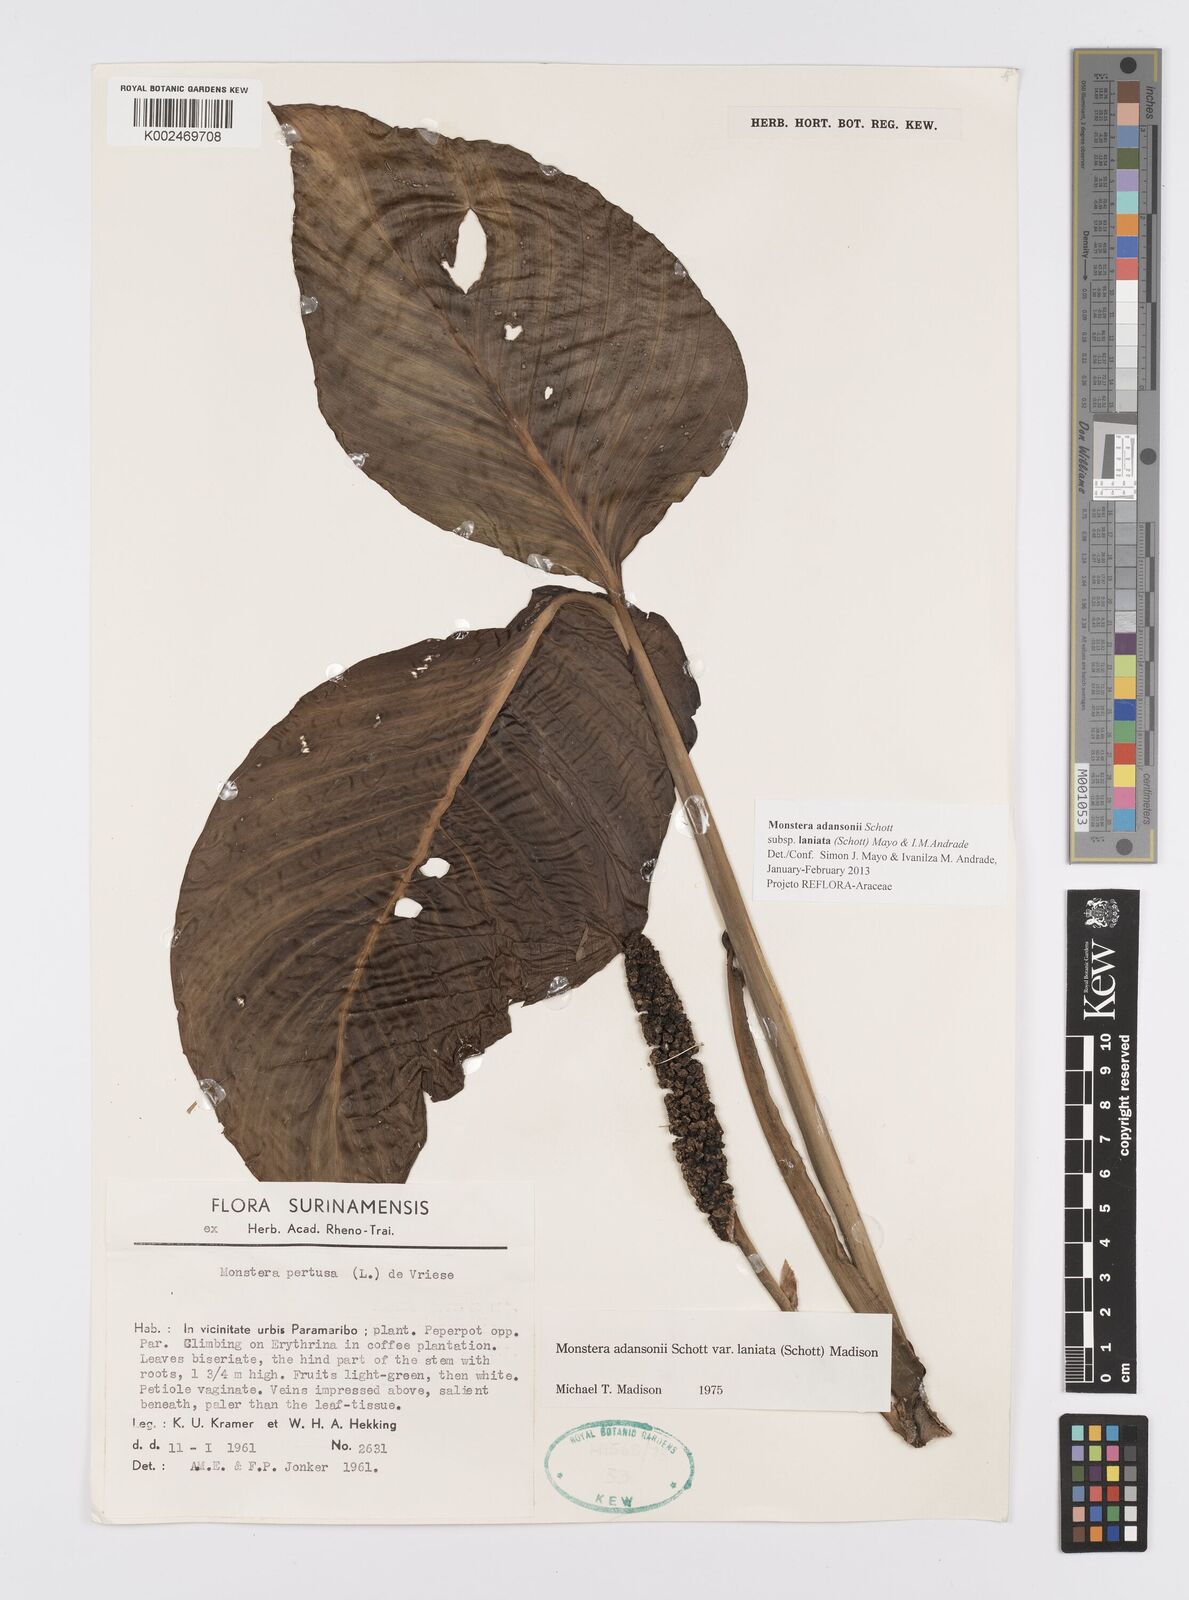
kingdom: Plantae
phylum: Tracheophyta
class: Liliopsida
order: Alismatales
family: Araceae
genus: Monstera
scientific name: Monstera adansonii
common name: Tarovine
